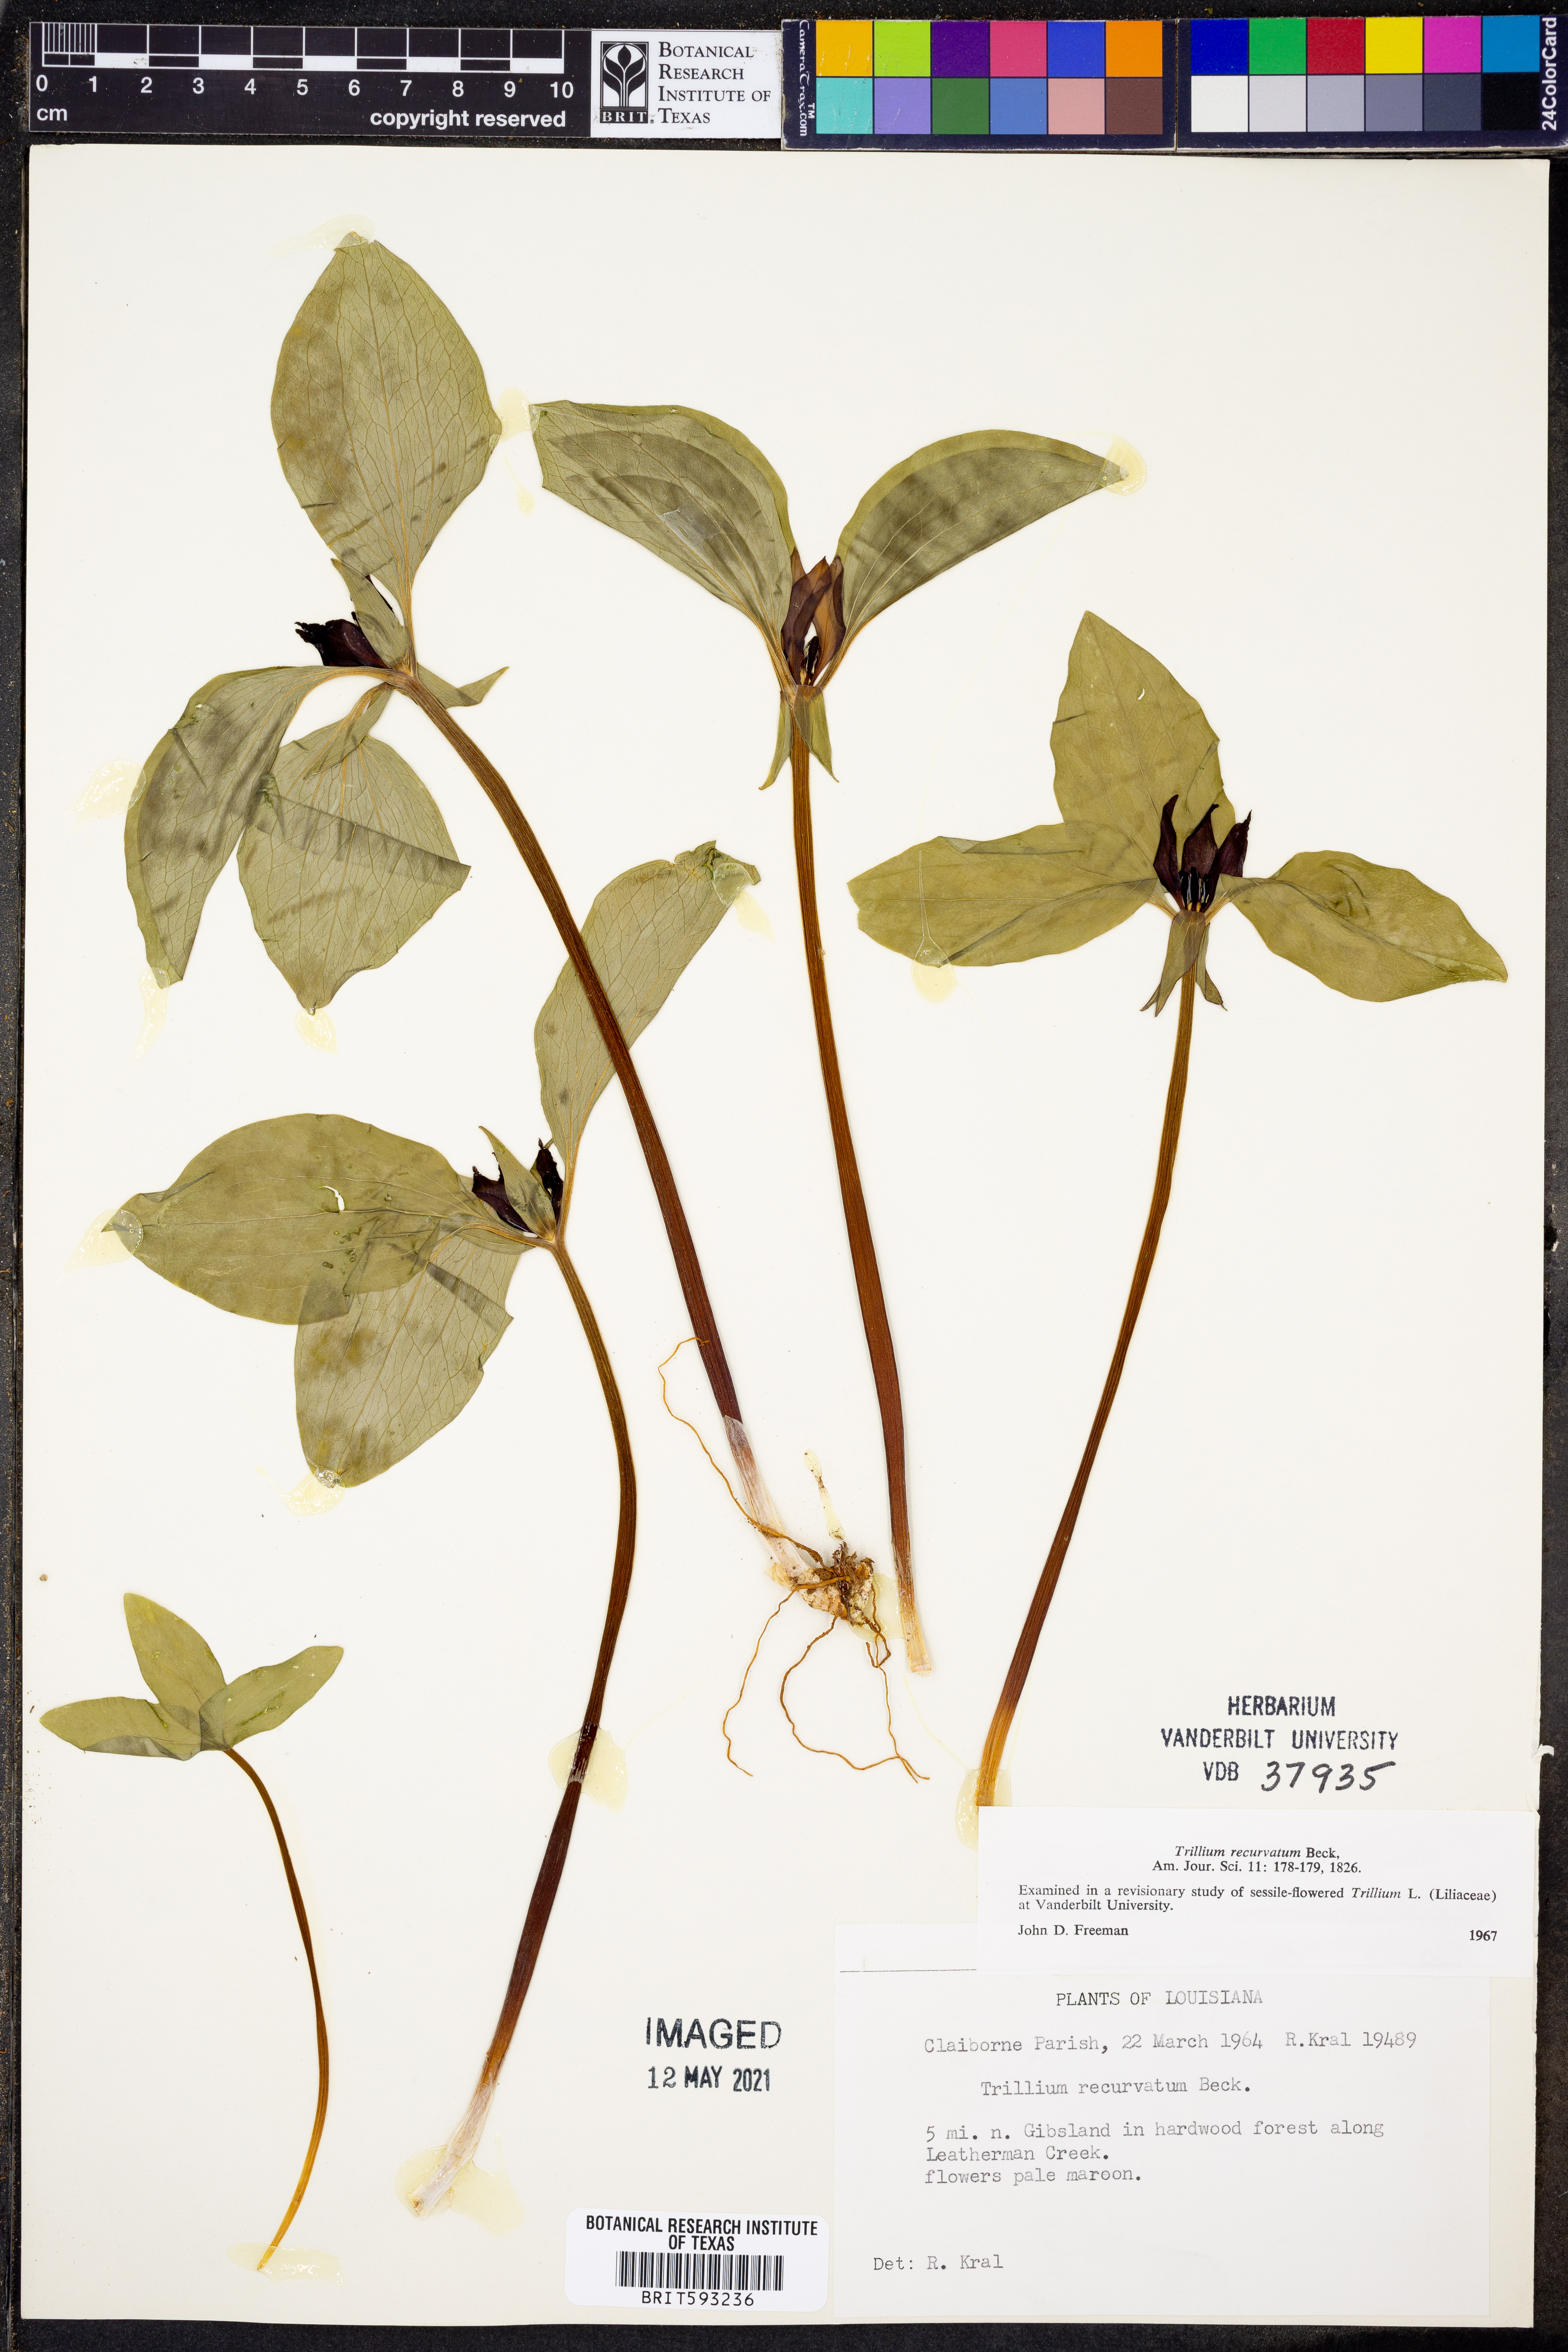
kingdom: Plantae
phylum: Tracheophyta
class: Liliopsida
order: Liliales
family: Melanthiaceae
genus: Trillium
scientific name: Trillium recurvatum
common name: Bloody butcher
